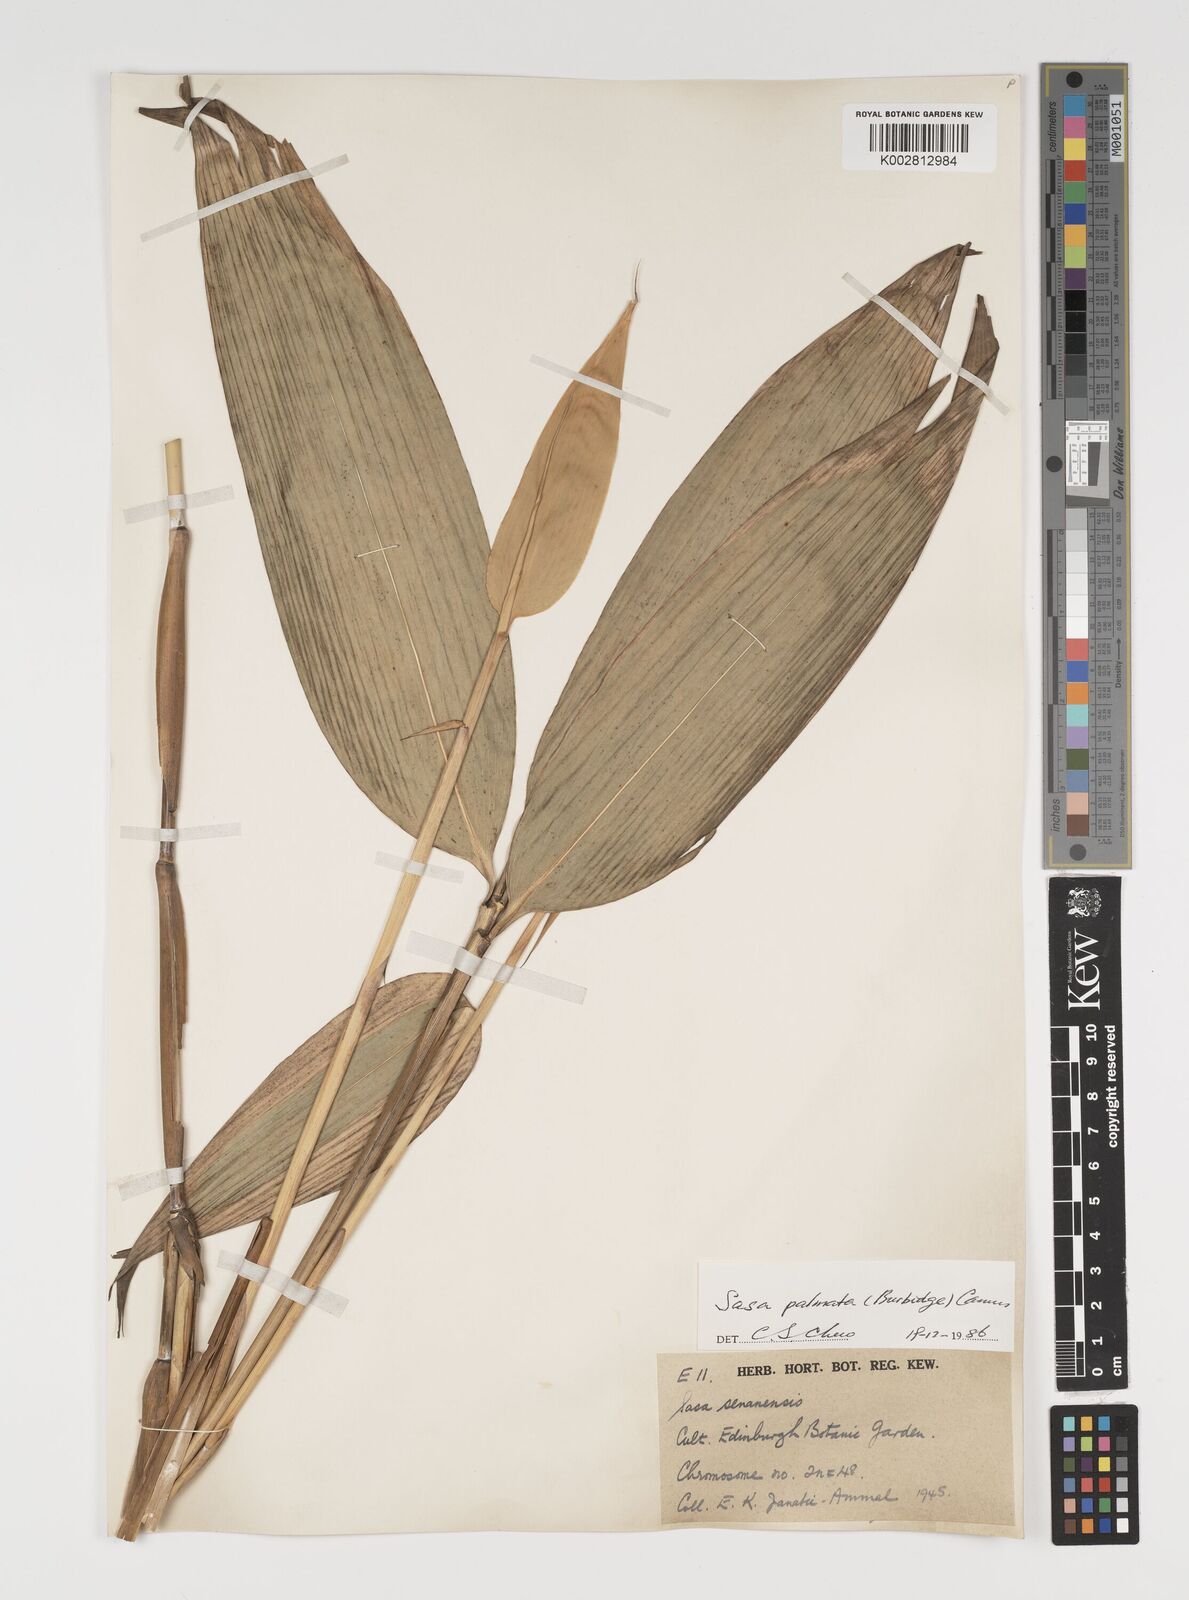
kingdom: Plantae
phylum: Tracheophyta
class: Liliopsida
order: Poales
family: Poaceae
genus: Sasa
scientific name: Sasa palmata
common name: Broad-leaved bamboo
